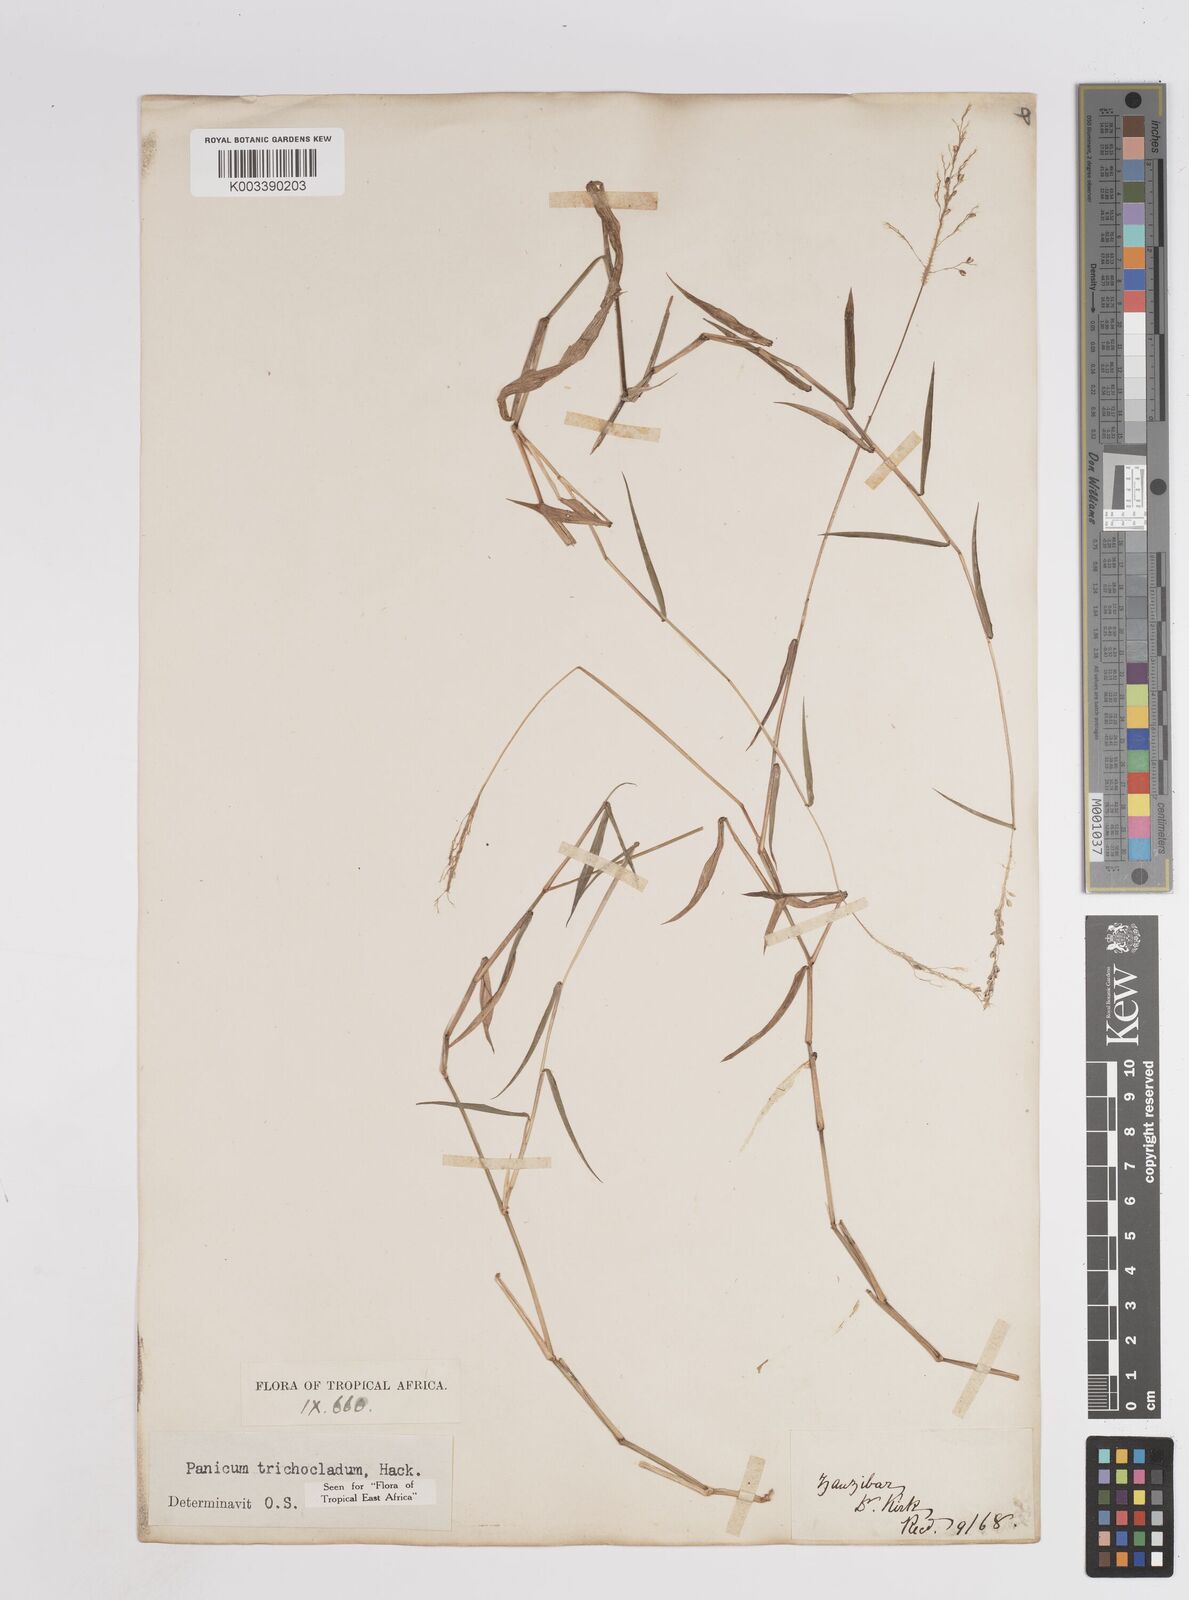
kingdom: Plantae
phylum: Tracheophyta
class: Liliopsida
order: Poales
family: Poaceae
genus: Panicum
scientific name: Panicum trichocladum
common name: Donkey grass
